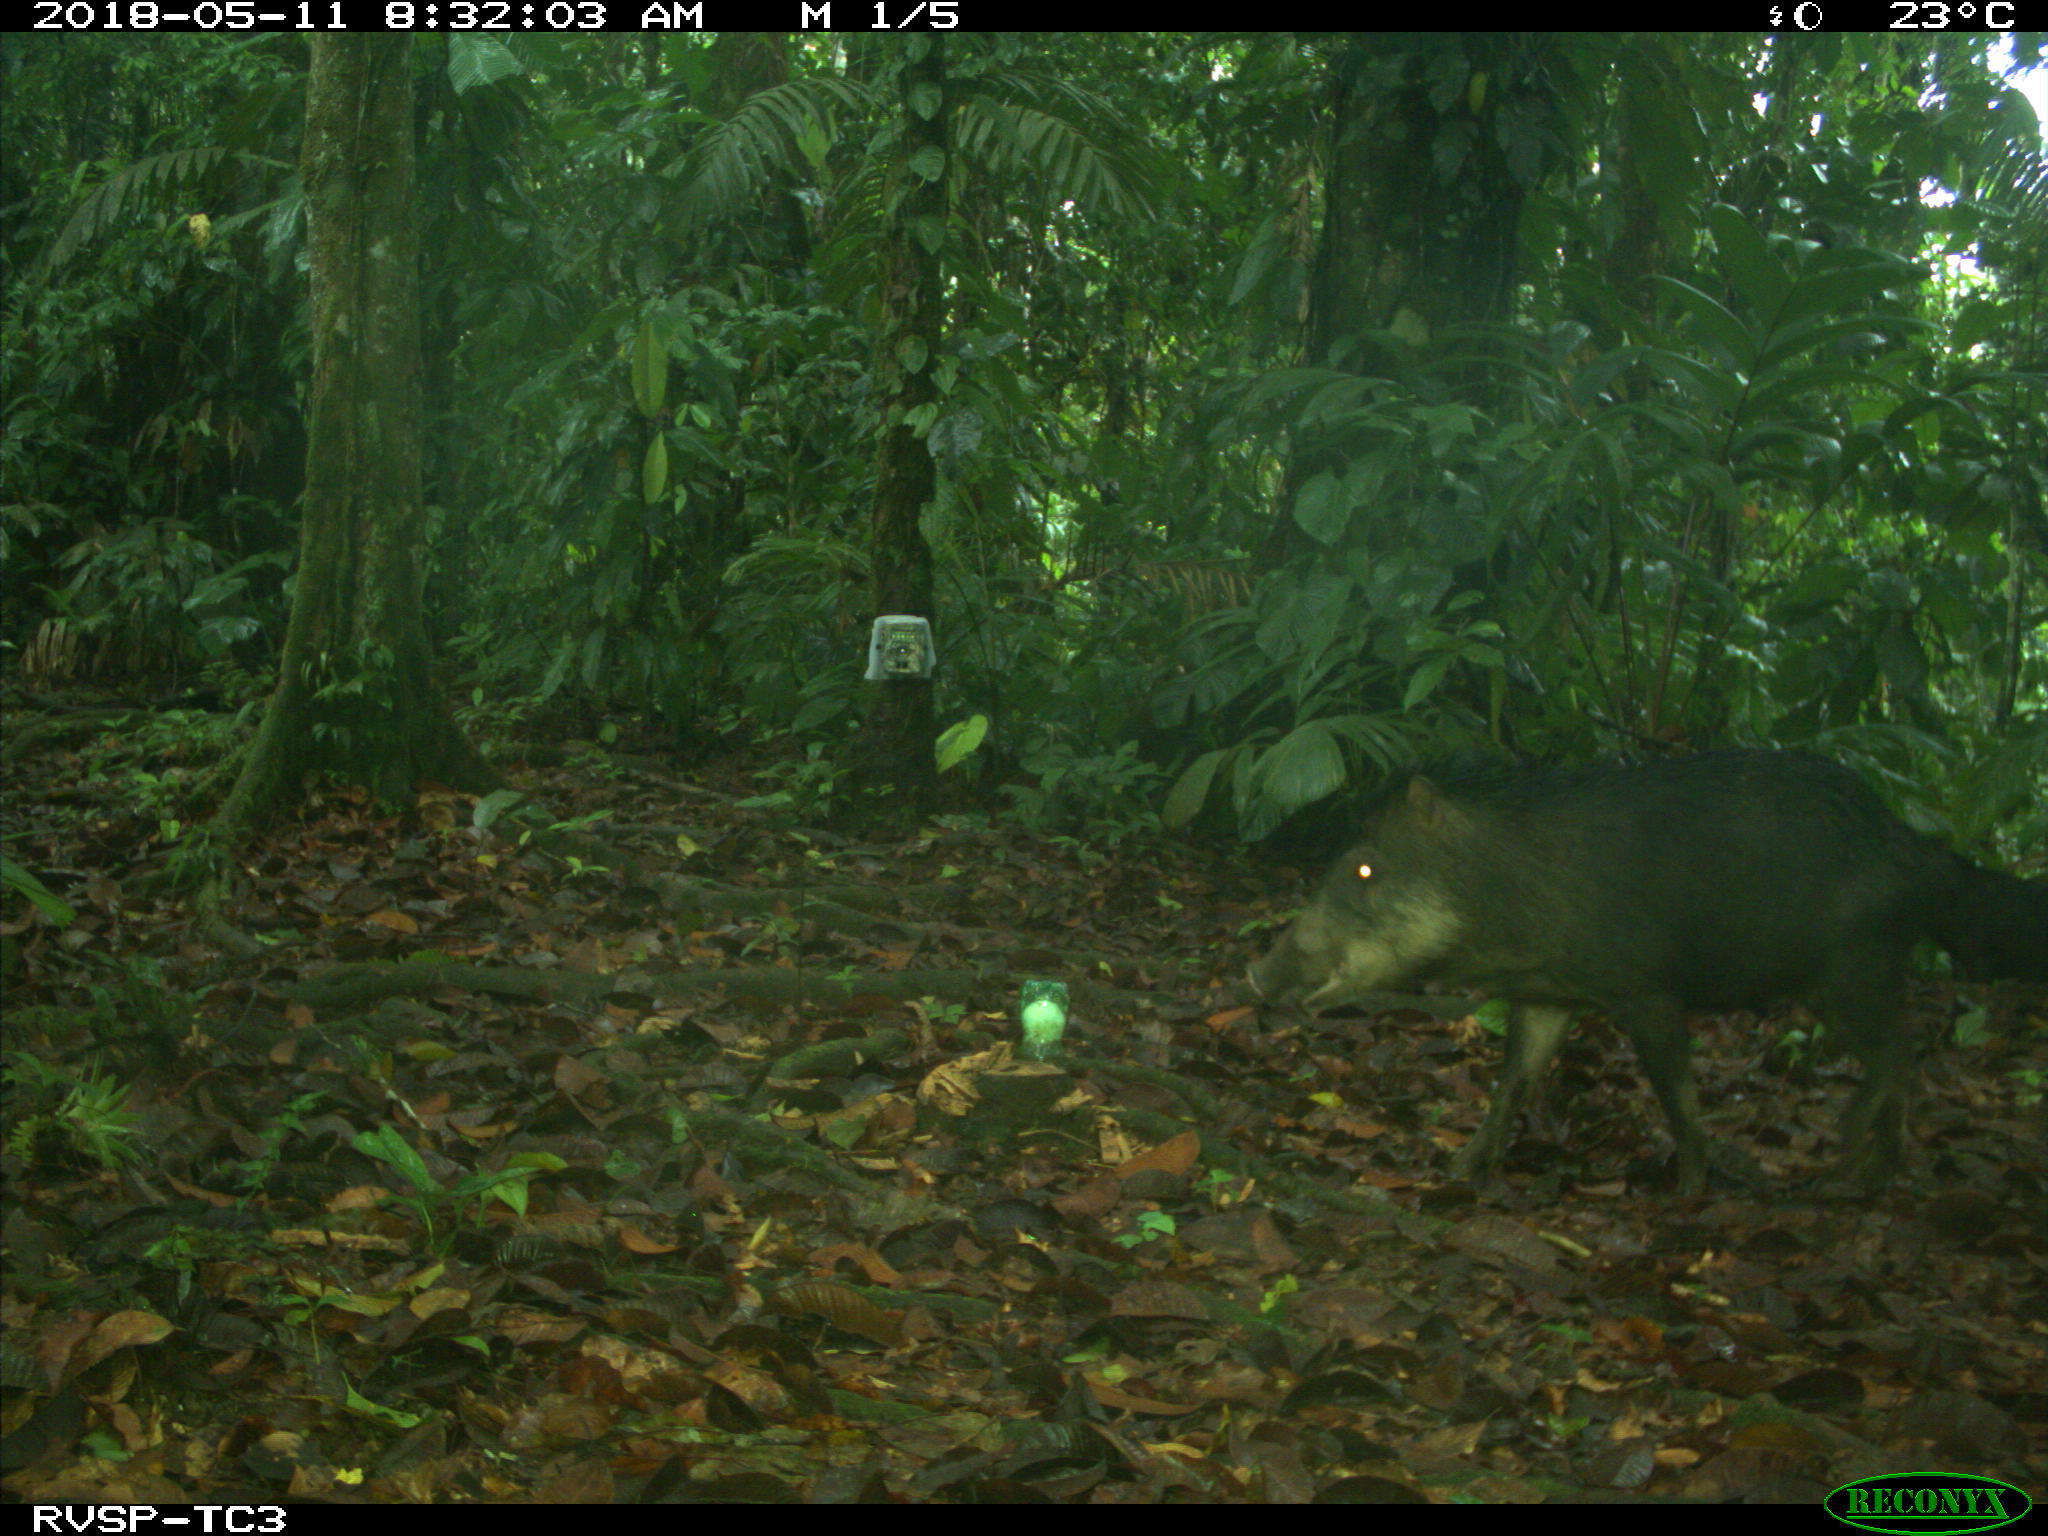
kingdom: Animalia
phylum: Chordata
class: Mammalia
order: Rodentia
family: Dasyproctidae
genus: Dasyprocta
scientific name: Dasyprocta punctata
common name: Central american agouti
